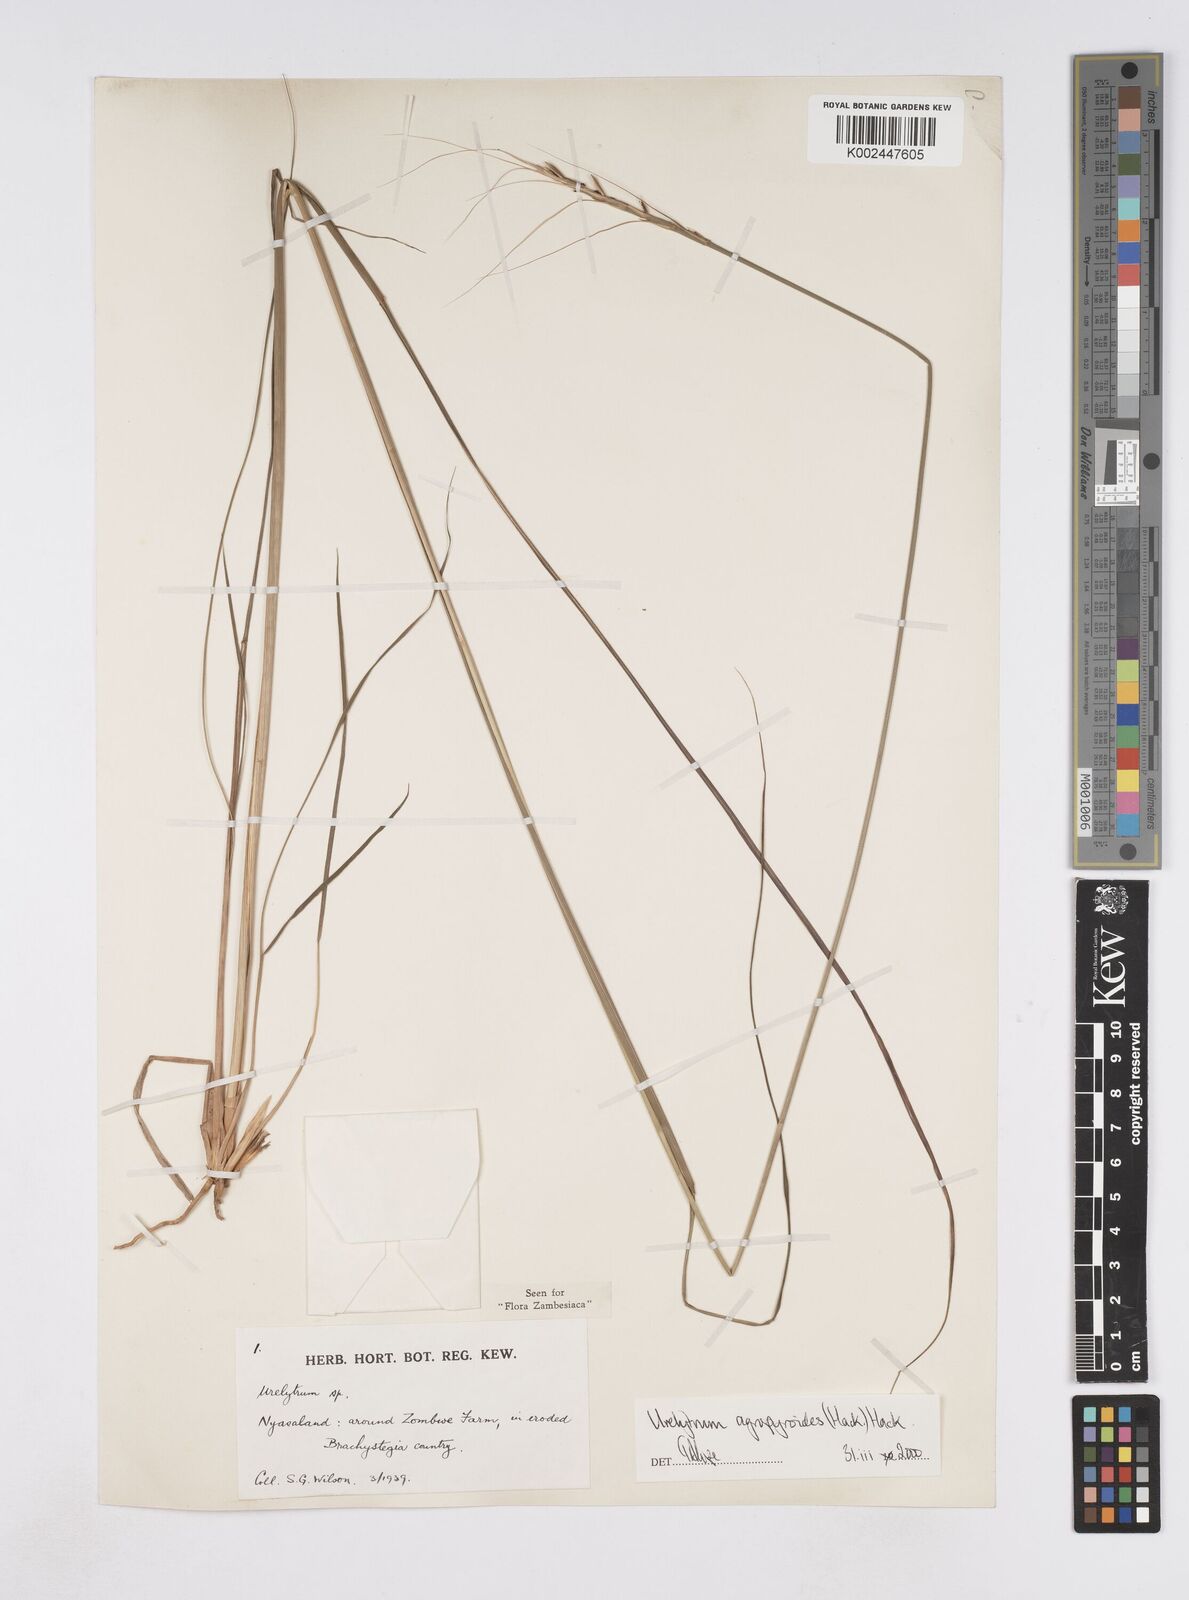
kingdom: Plantae
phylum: Tracheophyta
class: Liliopsida
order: Poales
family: Poaceae
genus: Urelytrum
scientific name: Urelytrum agropyroides
